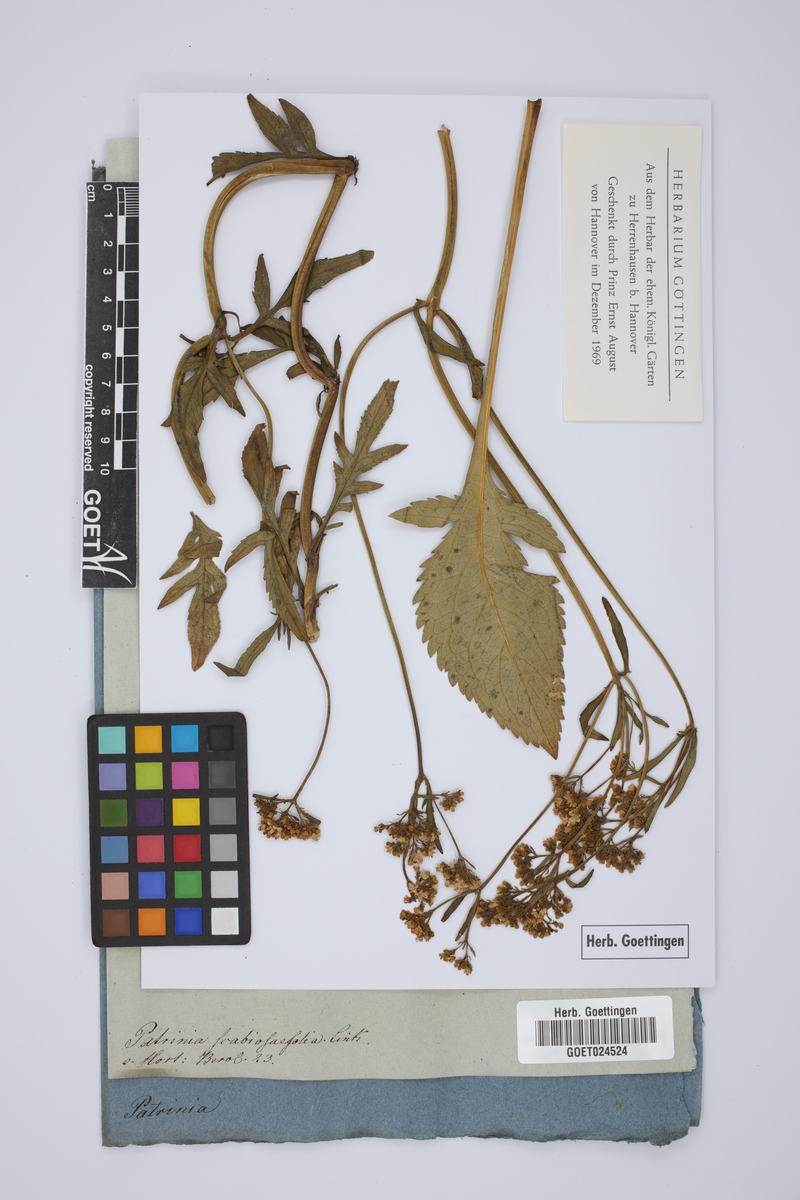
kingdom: Plantae
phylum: Tracheophyta
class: Magnoliopsida
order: Dipsacales
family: Caprifoliaceae
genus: Patrinia
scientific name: Patrinia scabiosifolia
